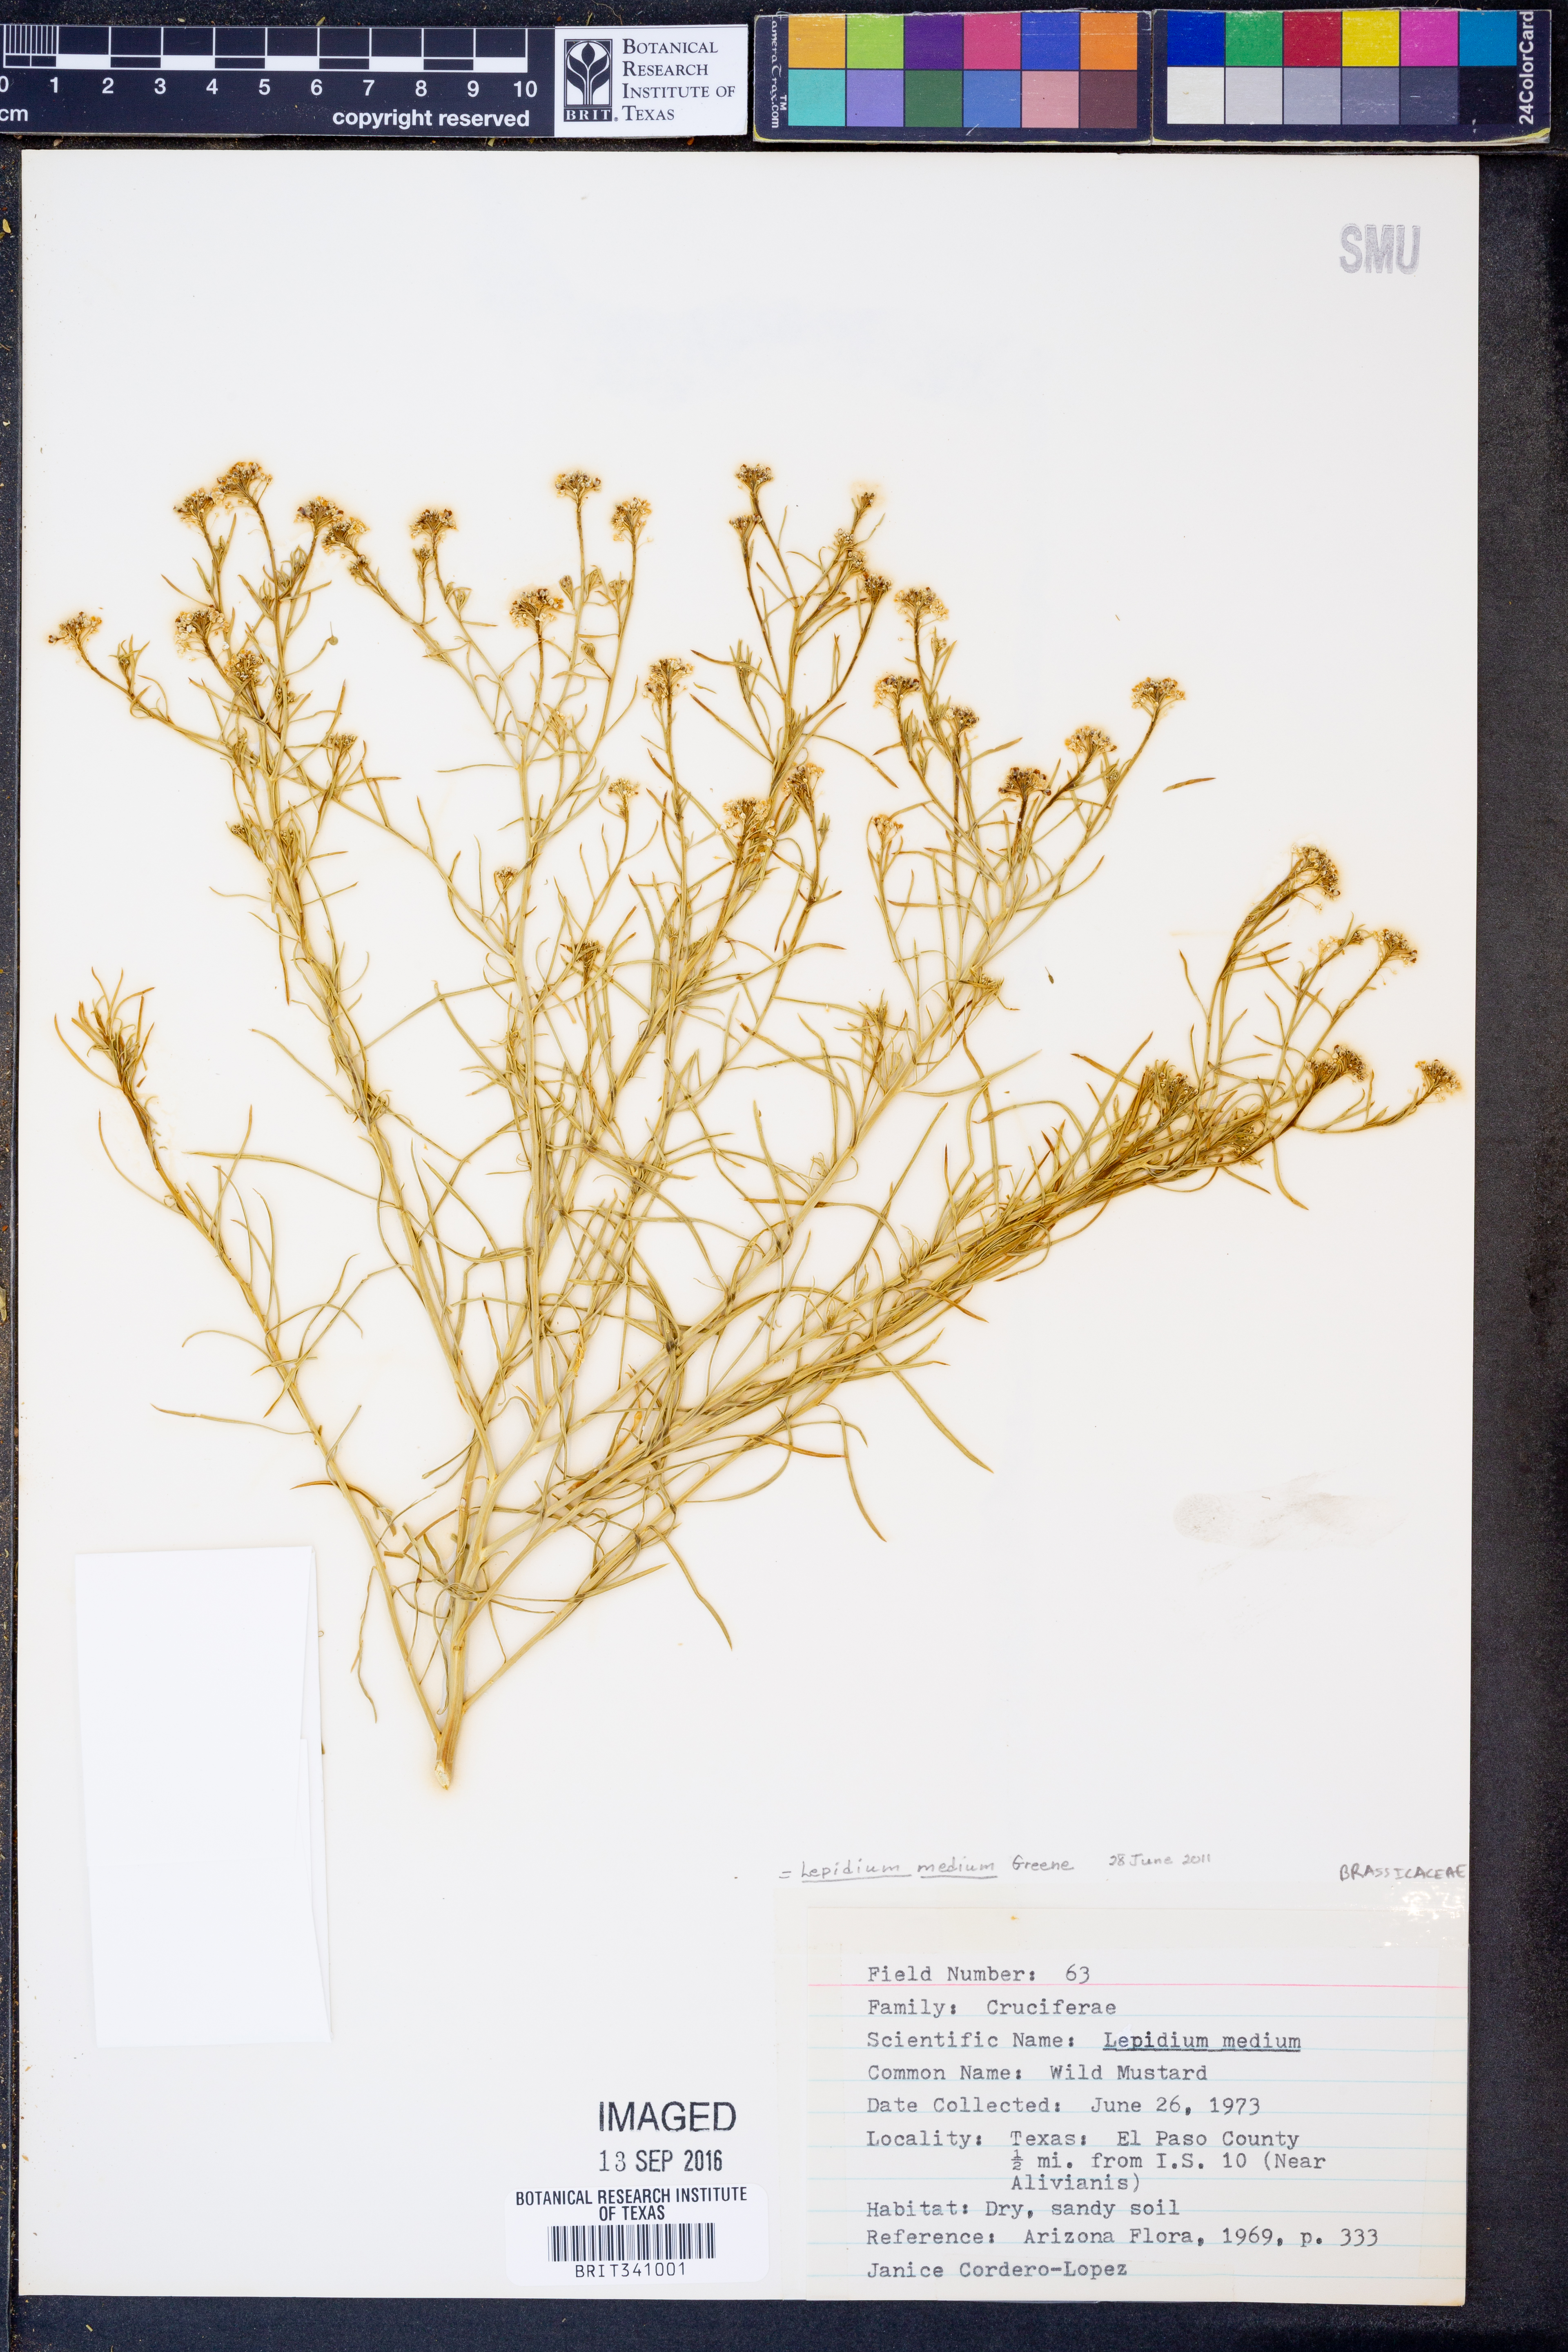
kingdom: Plantae
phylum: Tracheophyta
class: Magnoliopsida
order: Brassicales
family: Brassicaceae
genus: Lepidium
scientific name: Lepidium virginicum
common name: Least pepperwort
